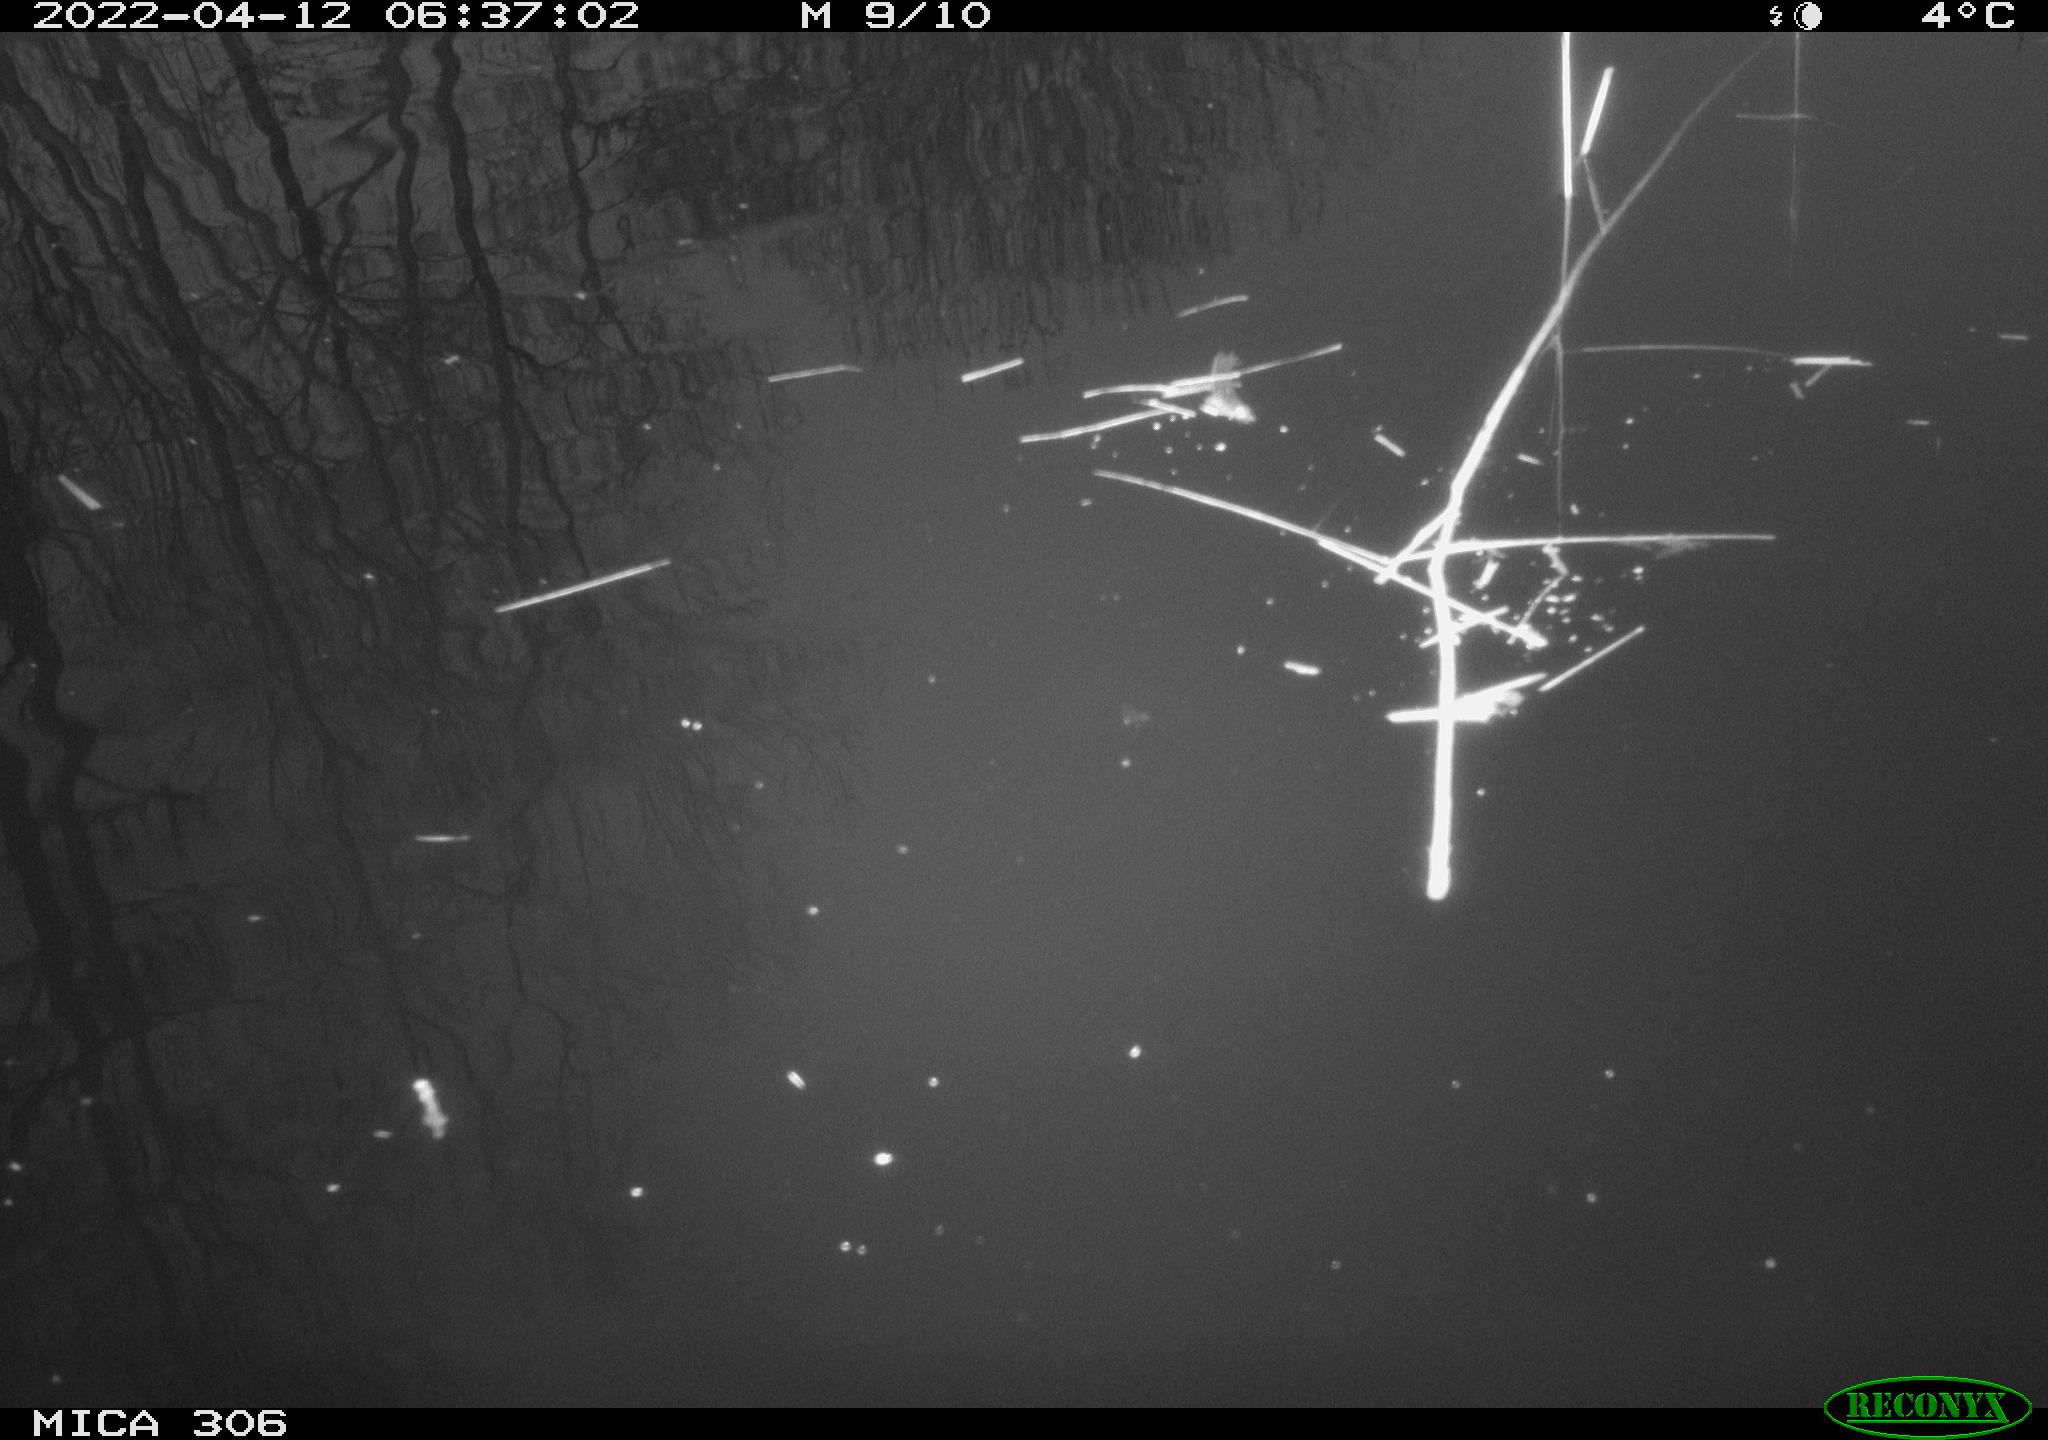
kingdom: Animalia
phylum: Chordata
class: Aves
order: Gruiformes
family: Rallidae
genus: Gallinula
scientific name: Gallinula chloropus
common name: Common moorhen
